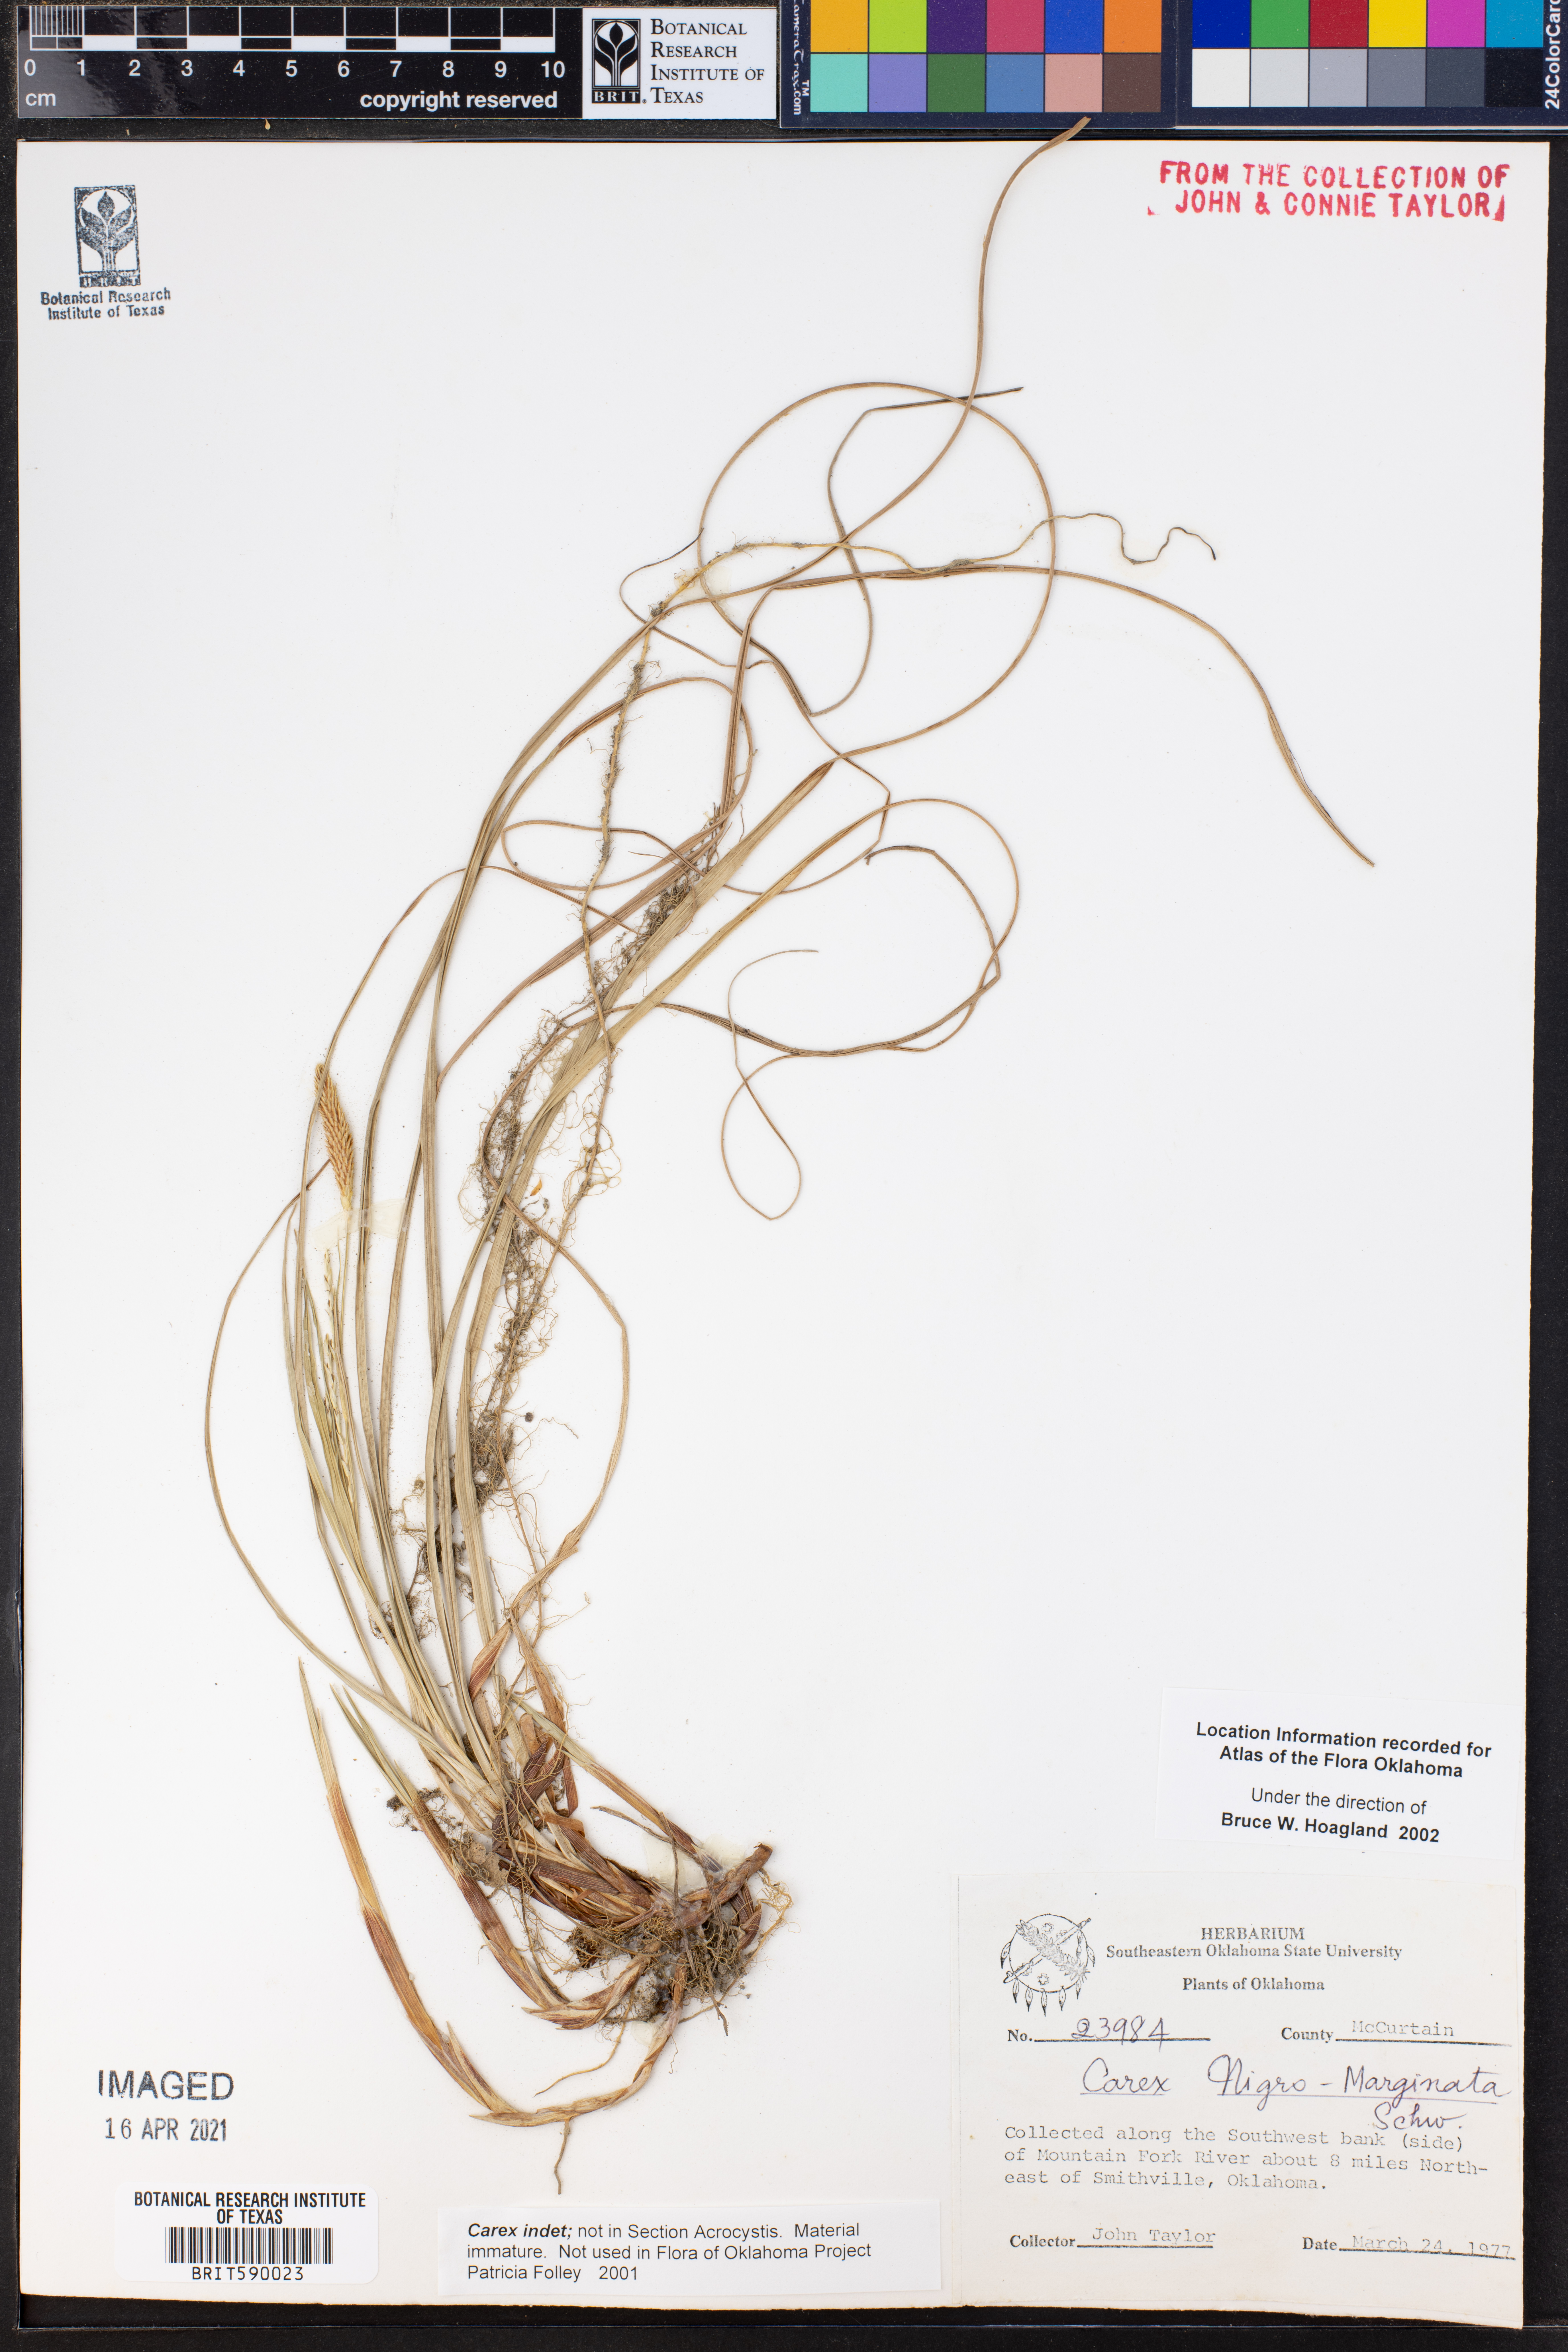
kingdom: Plantae
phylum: Tracheophyta
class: Liliopsida
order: Poales
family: Cyperaceae
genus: Carex
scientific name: Carex
